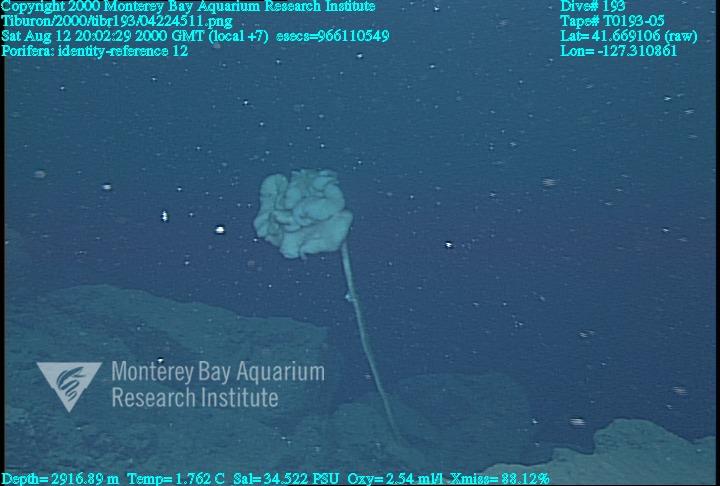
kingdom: Animalia
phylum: Porifera
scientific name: Porifera
